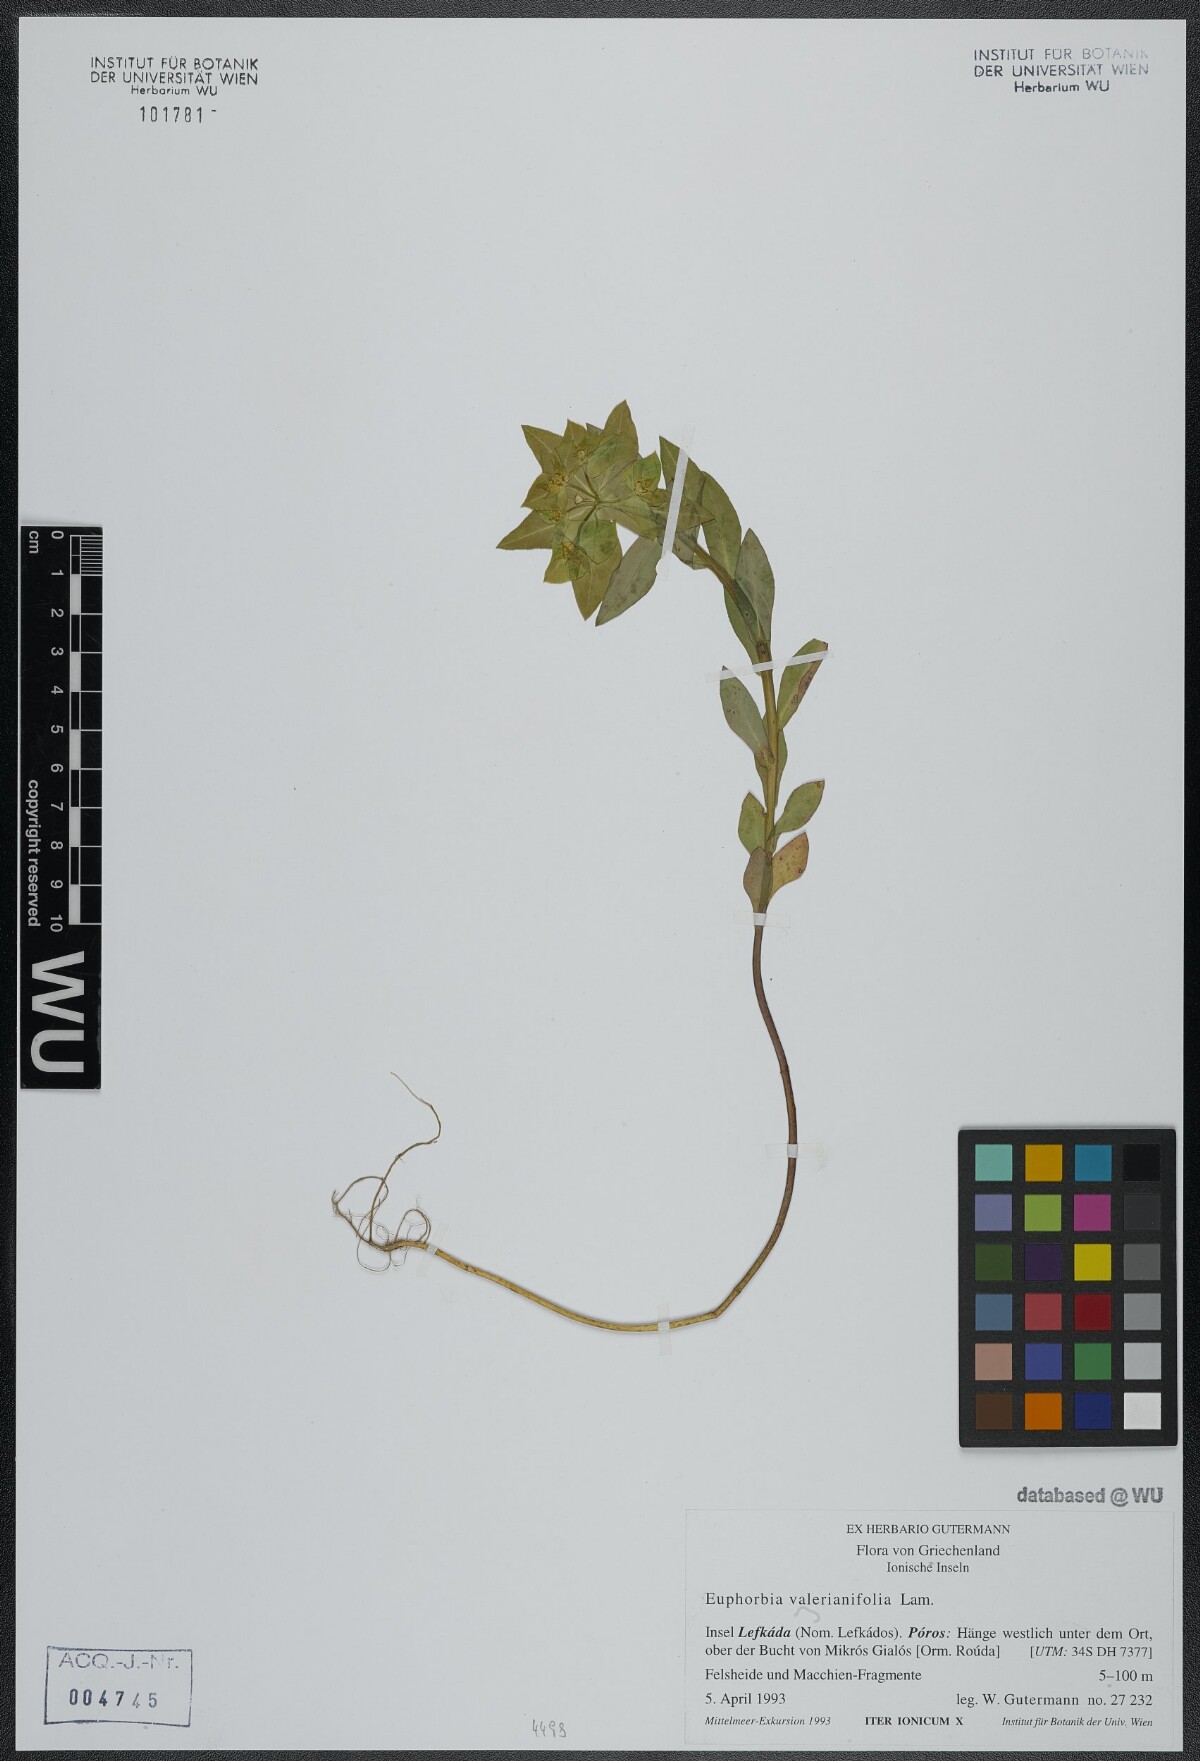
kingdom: Plantae
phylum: Tracheophyta
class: Magnoliopsida
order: Malpighiales
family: Euphorbiaceae
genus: Euphorbia
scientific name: Euphorbia valerianifolia
